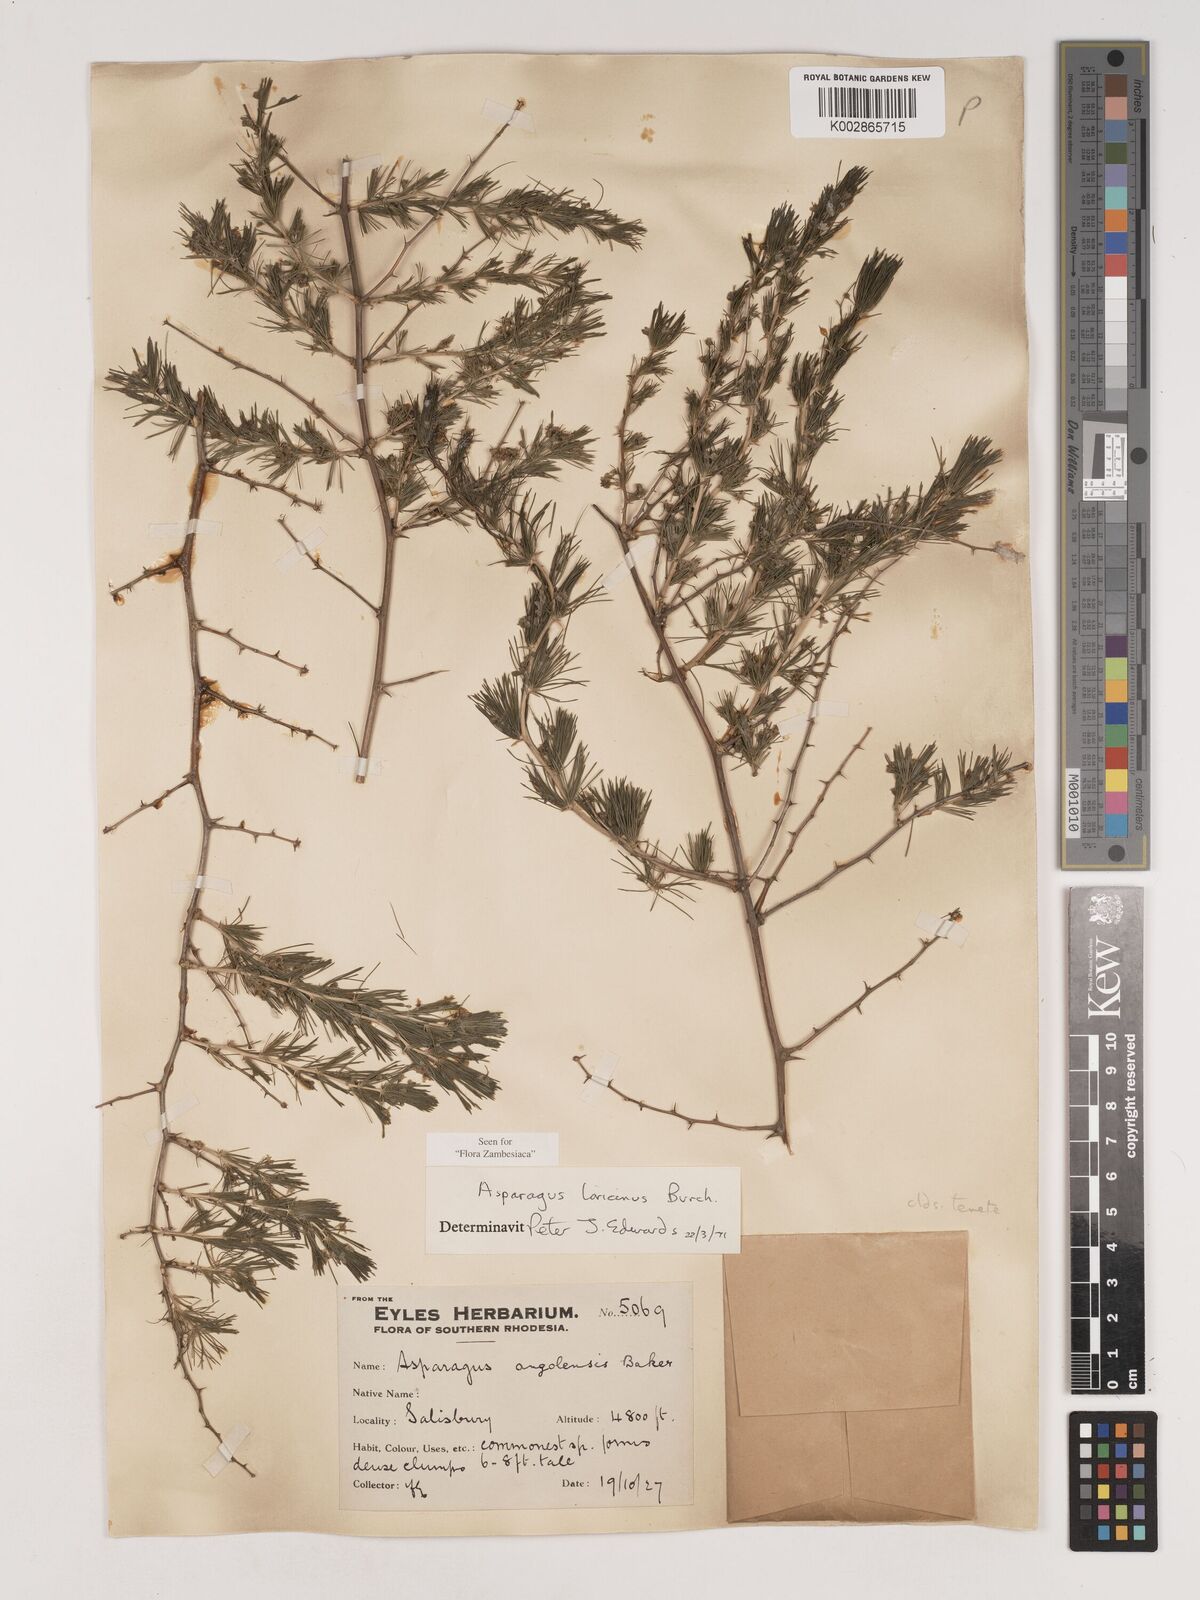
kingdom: Plantae
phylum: Tracheophyta
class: Liliopsida
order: Asparagales
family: Asparagaceae
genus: Asparagus
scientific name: Asparagus laricinus
